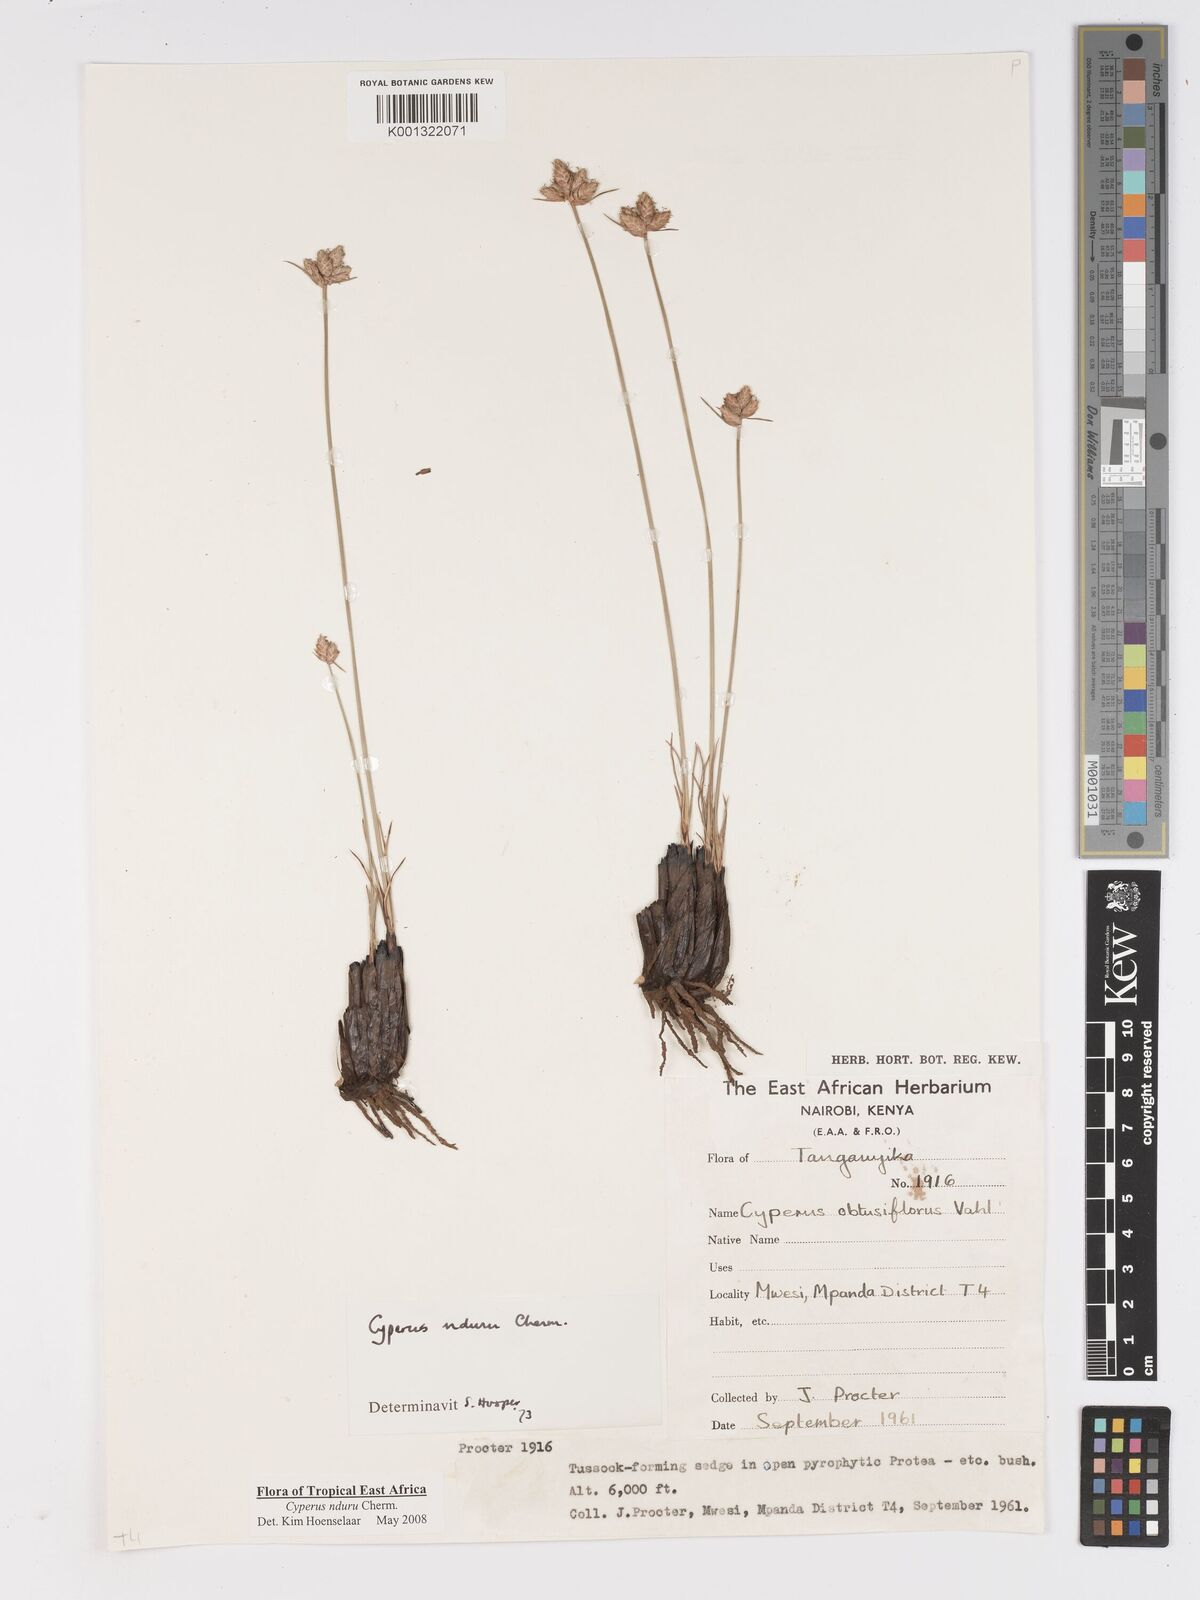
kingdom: Plantae
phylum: Tracheophyta
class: Liliopsida
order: Poales
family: Cyperaceae
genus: Cyperus
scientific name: Cyperus nduru
